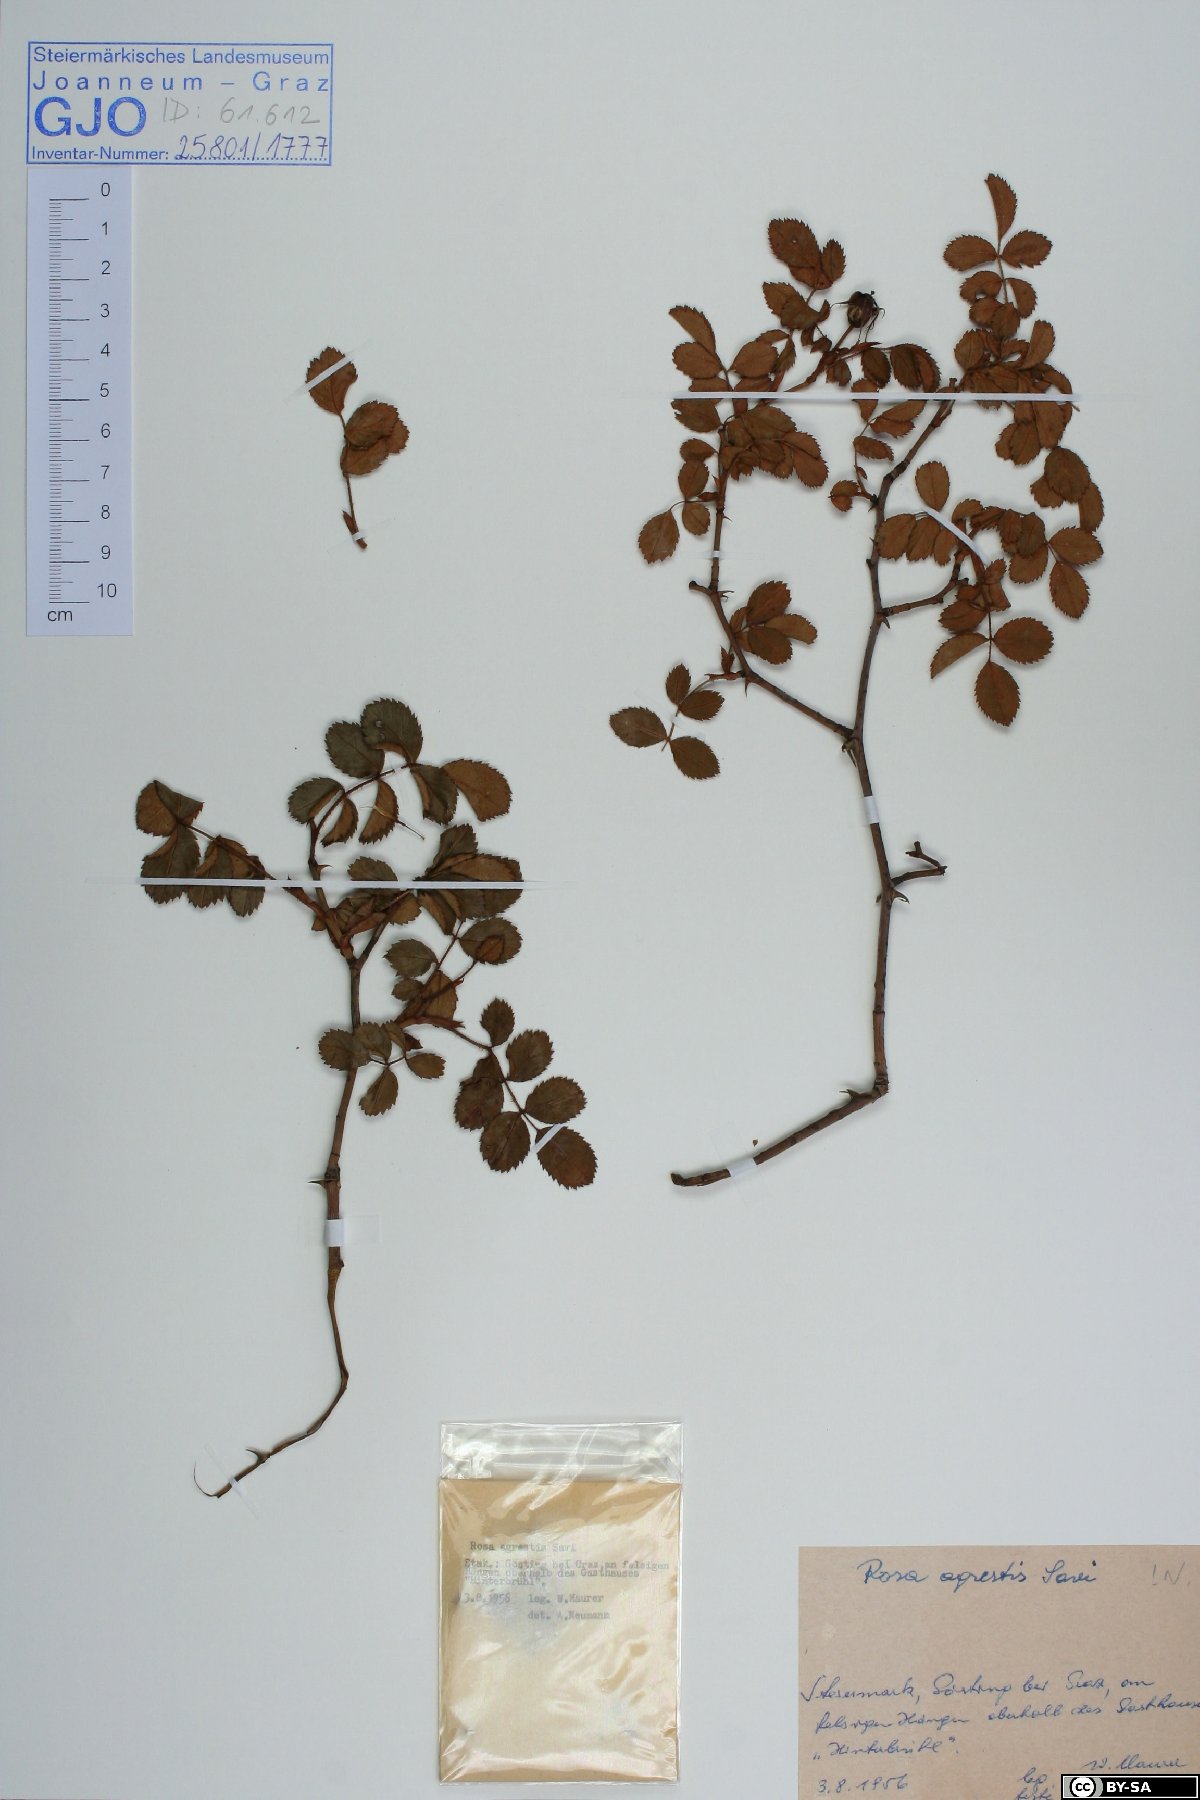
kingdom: Plantae
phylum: Tracheophyta
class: Magnoliopsida
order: Rosales
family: Rosaceae
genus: Rosa
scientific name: Rosa agrestis
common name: Fieldbriar
